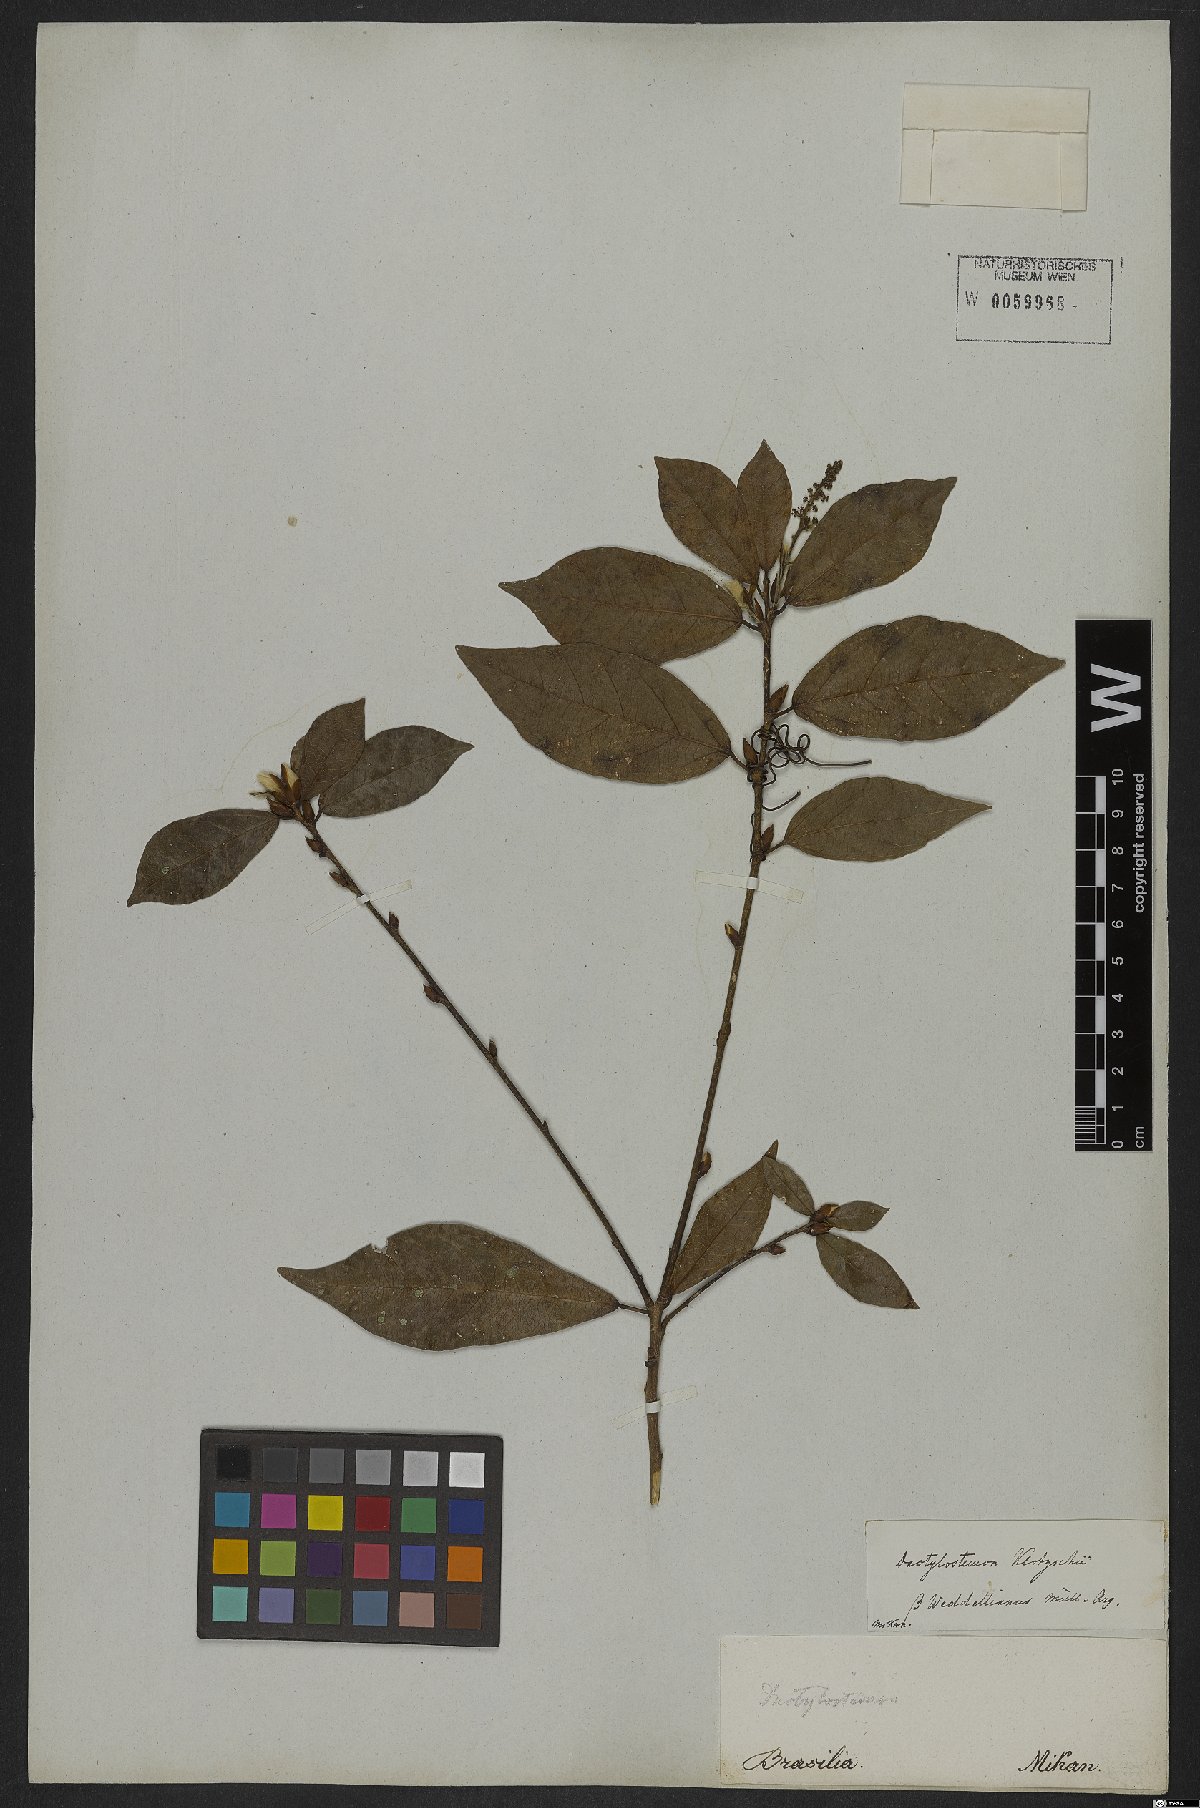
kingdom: Plantae
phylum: Tracheophyta
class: Magnoliopsida
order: Malpighiales
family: Euphorbiaceae
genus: Actinostemon
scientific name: Actinostemon klotzschii
